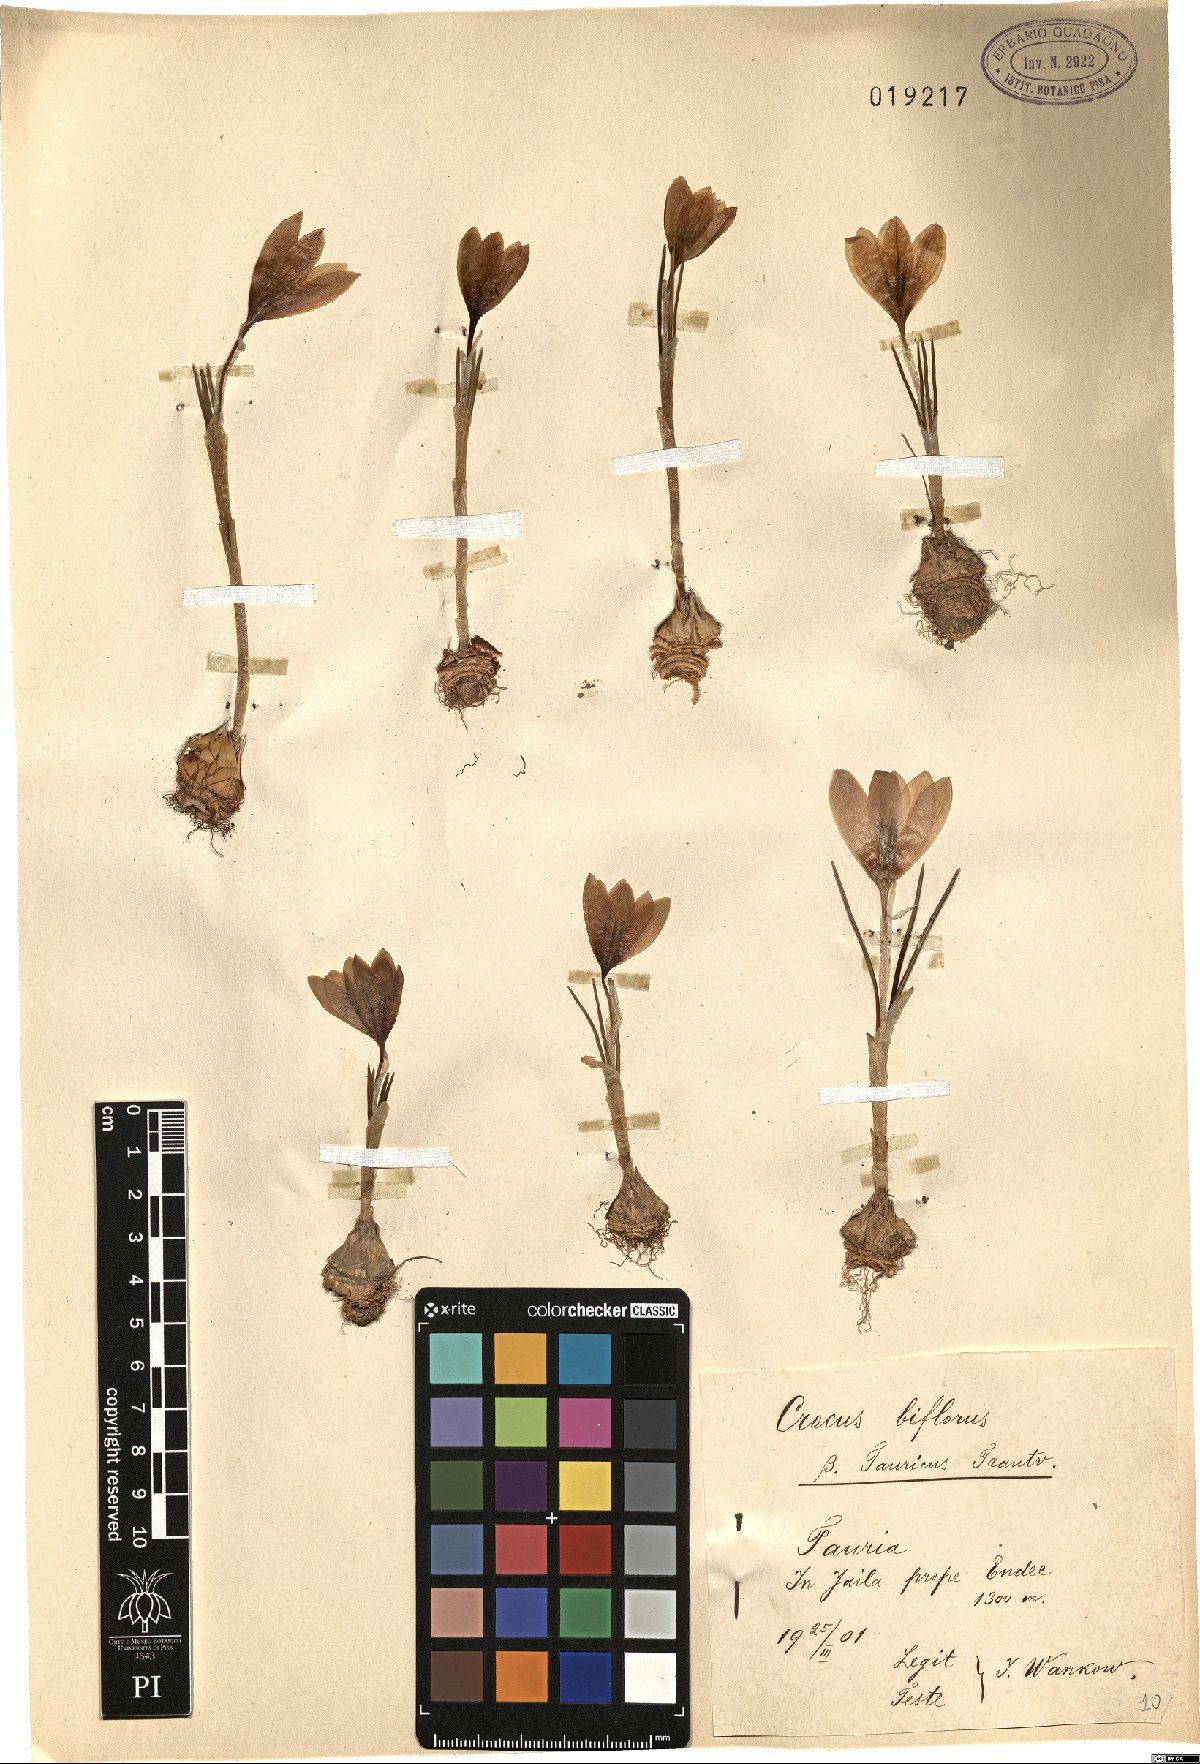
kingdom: Plantae
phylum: Tracheophyta
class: Liliopsida
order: Asparagales
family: Iridaceae
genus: Crocus
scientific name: Crocus tauricus
